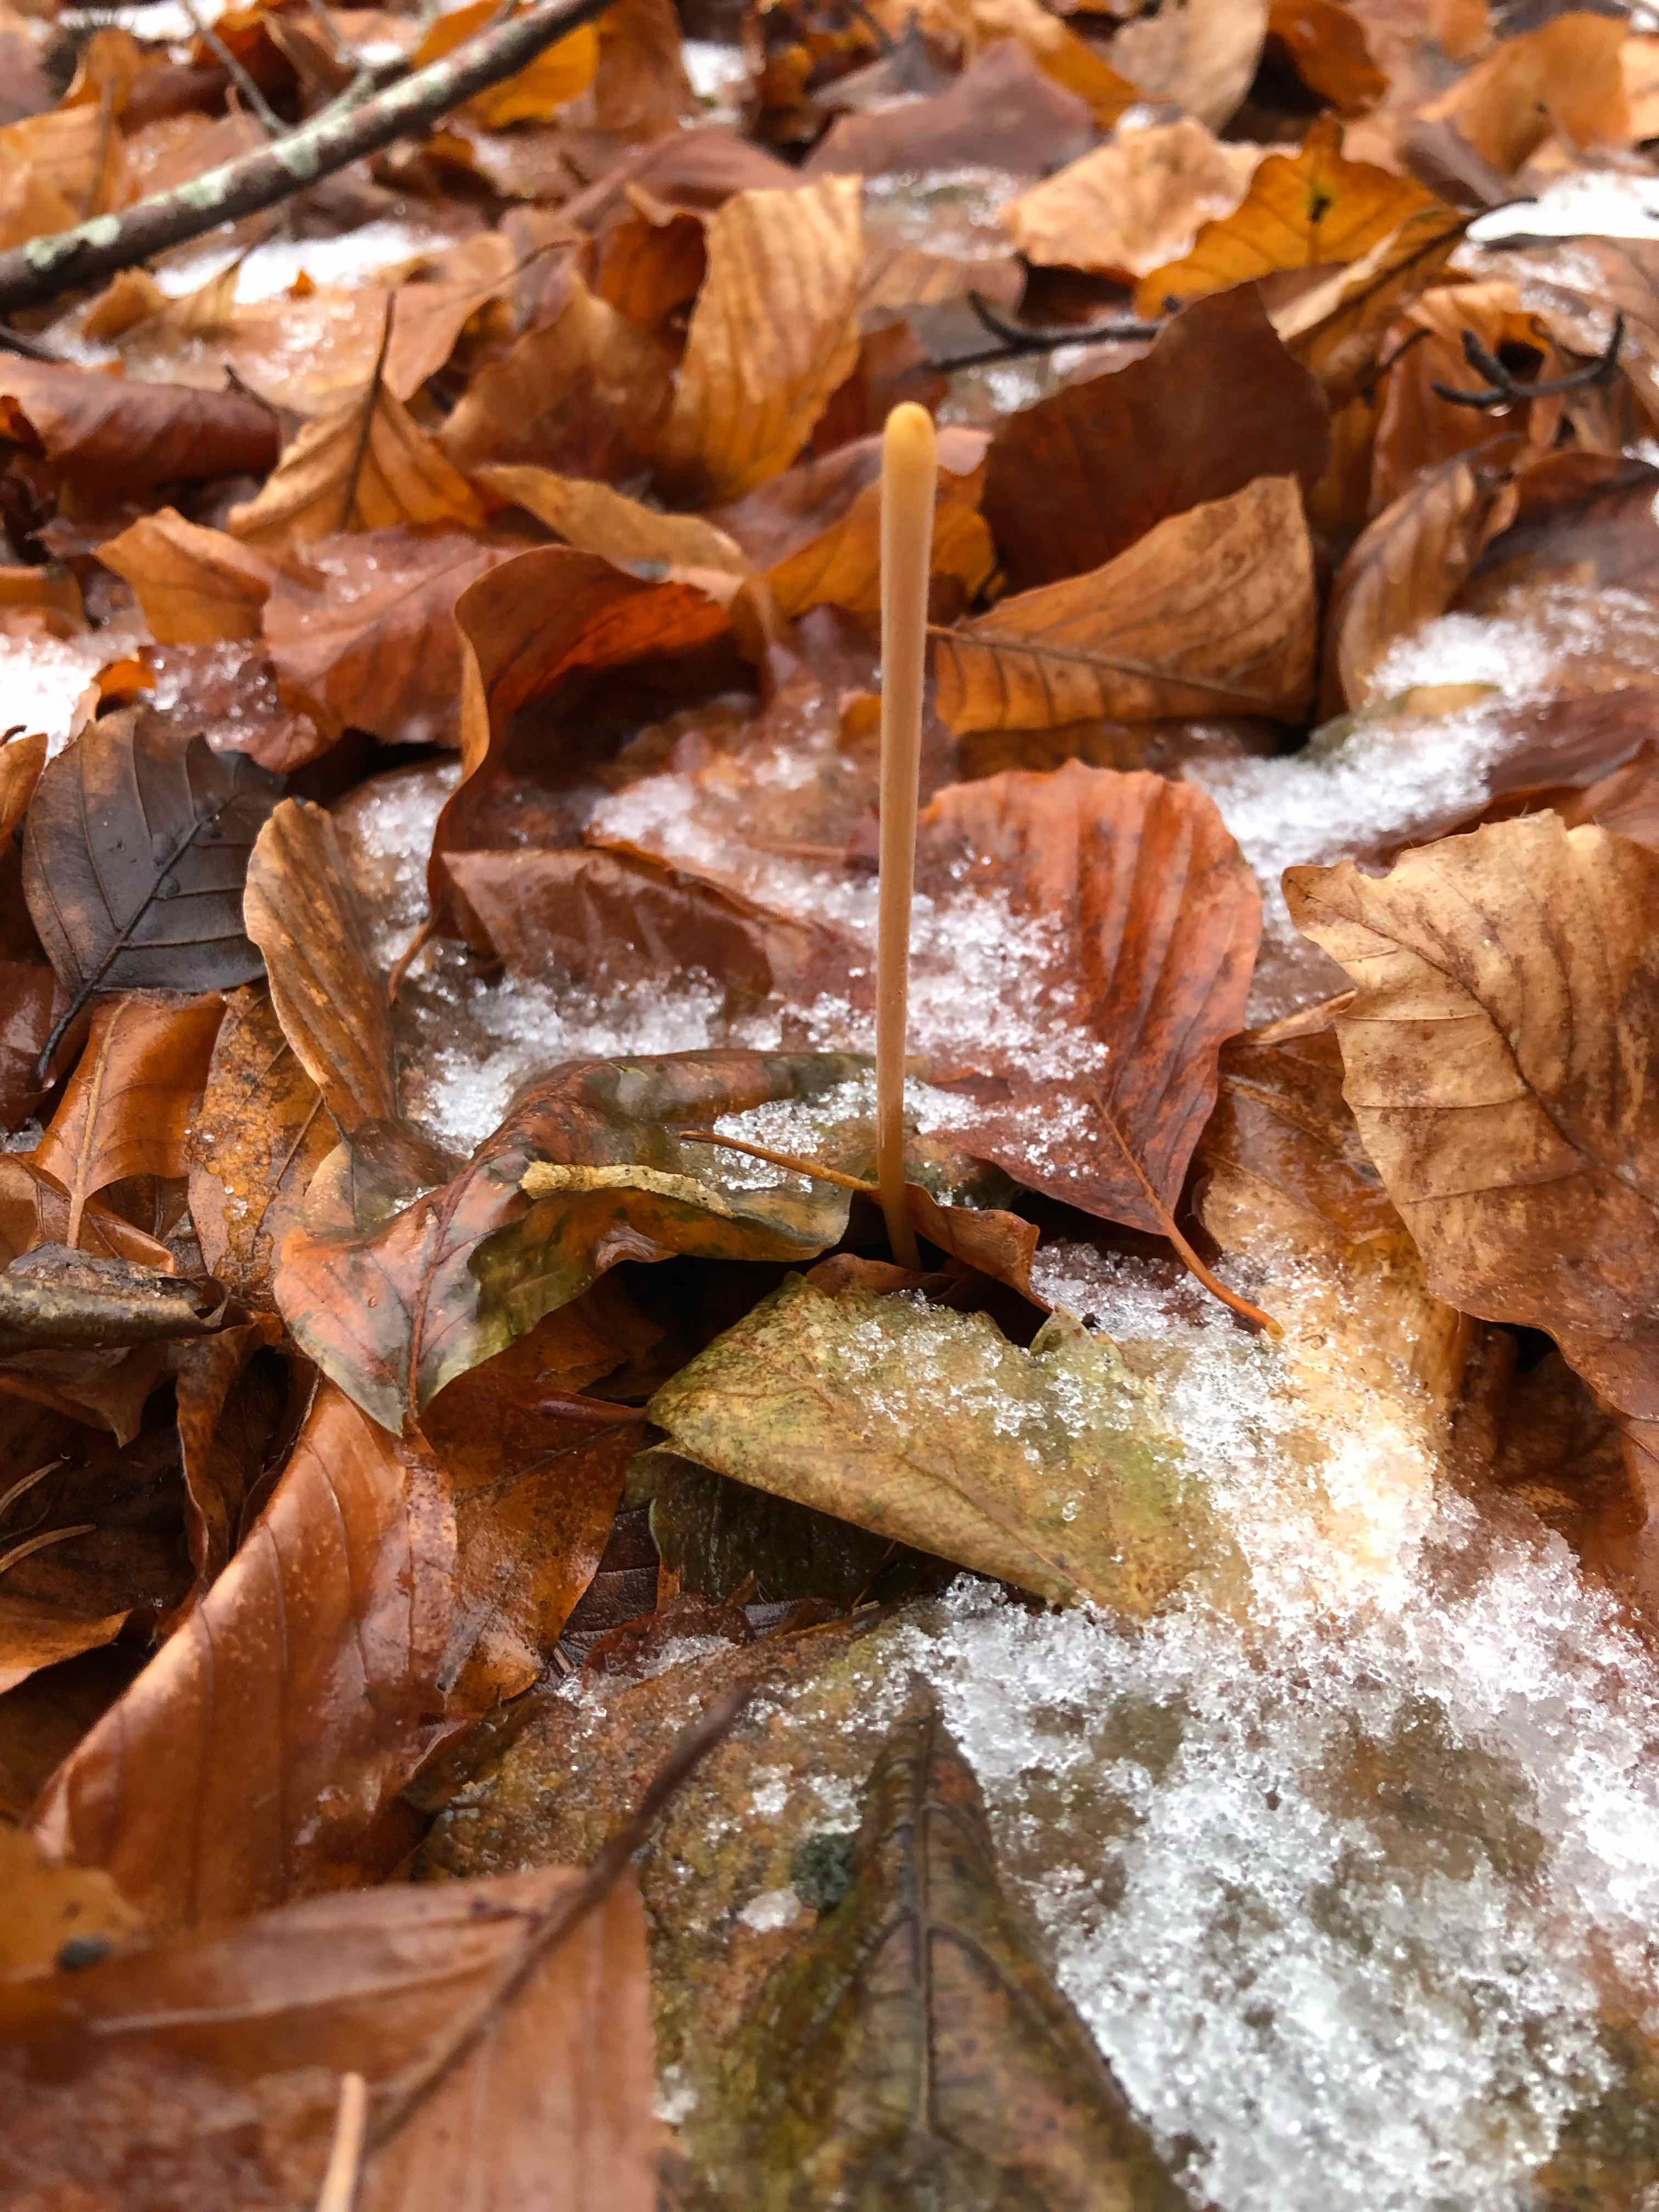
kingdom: Fungi
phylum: Basidiomycota
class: Agaricomycetes
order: Agaricales
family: Typhulaceae
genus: Typhula
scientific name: Typhula fistulosa
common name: pibet rørkølle
